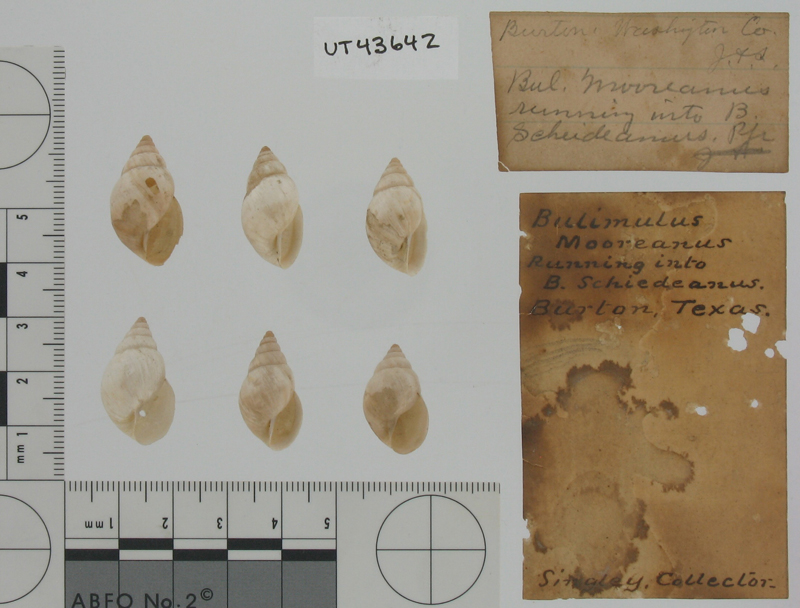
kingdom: Animalia
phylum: Mollusca
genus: Bulimulus
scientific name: Bulimulus
